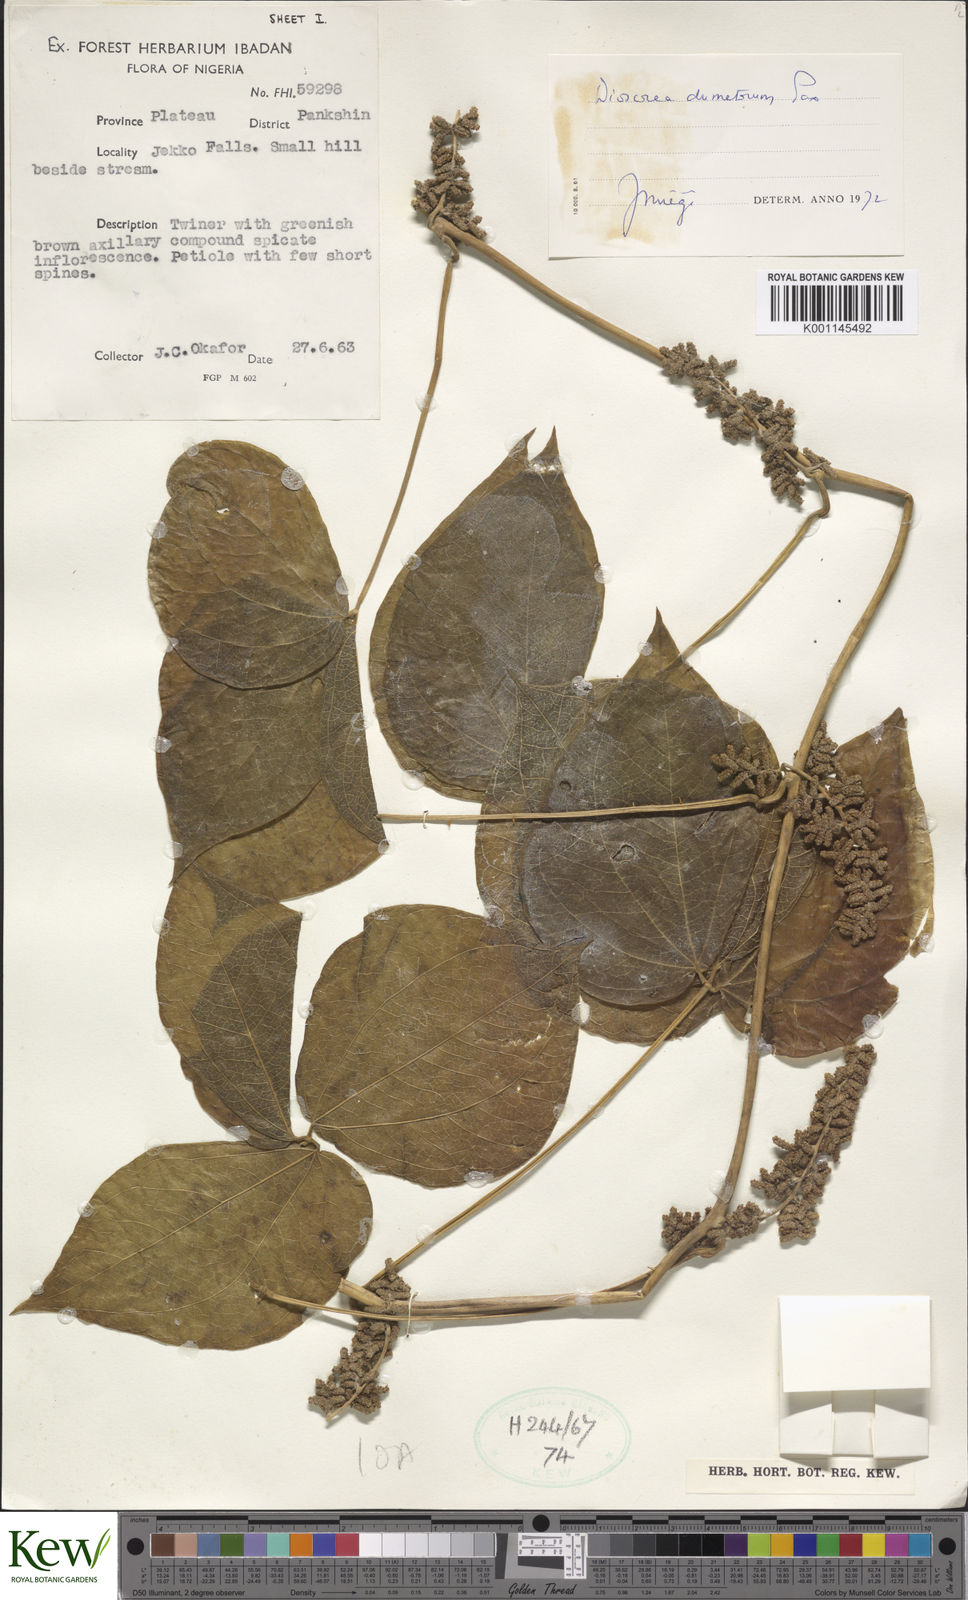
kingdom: Plantae
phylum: Tracheophyta
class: Liliopsida
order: Dioscoreales
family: Dioscoreaceae
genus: Dioscorea
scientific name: Dioscorea dumetorum
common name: African bitter yam
